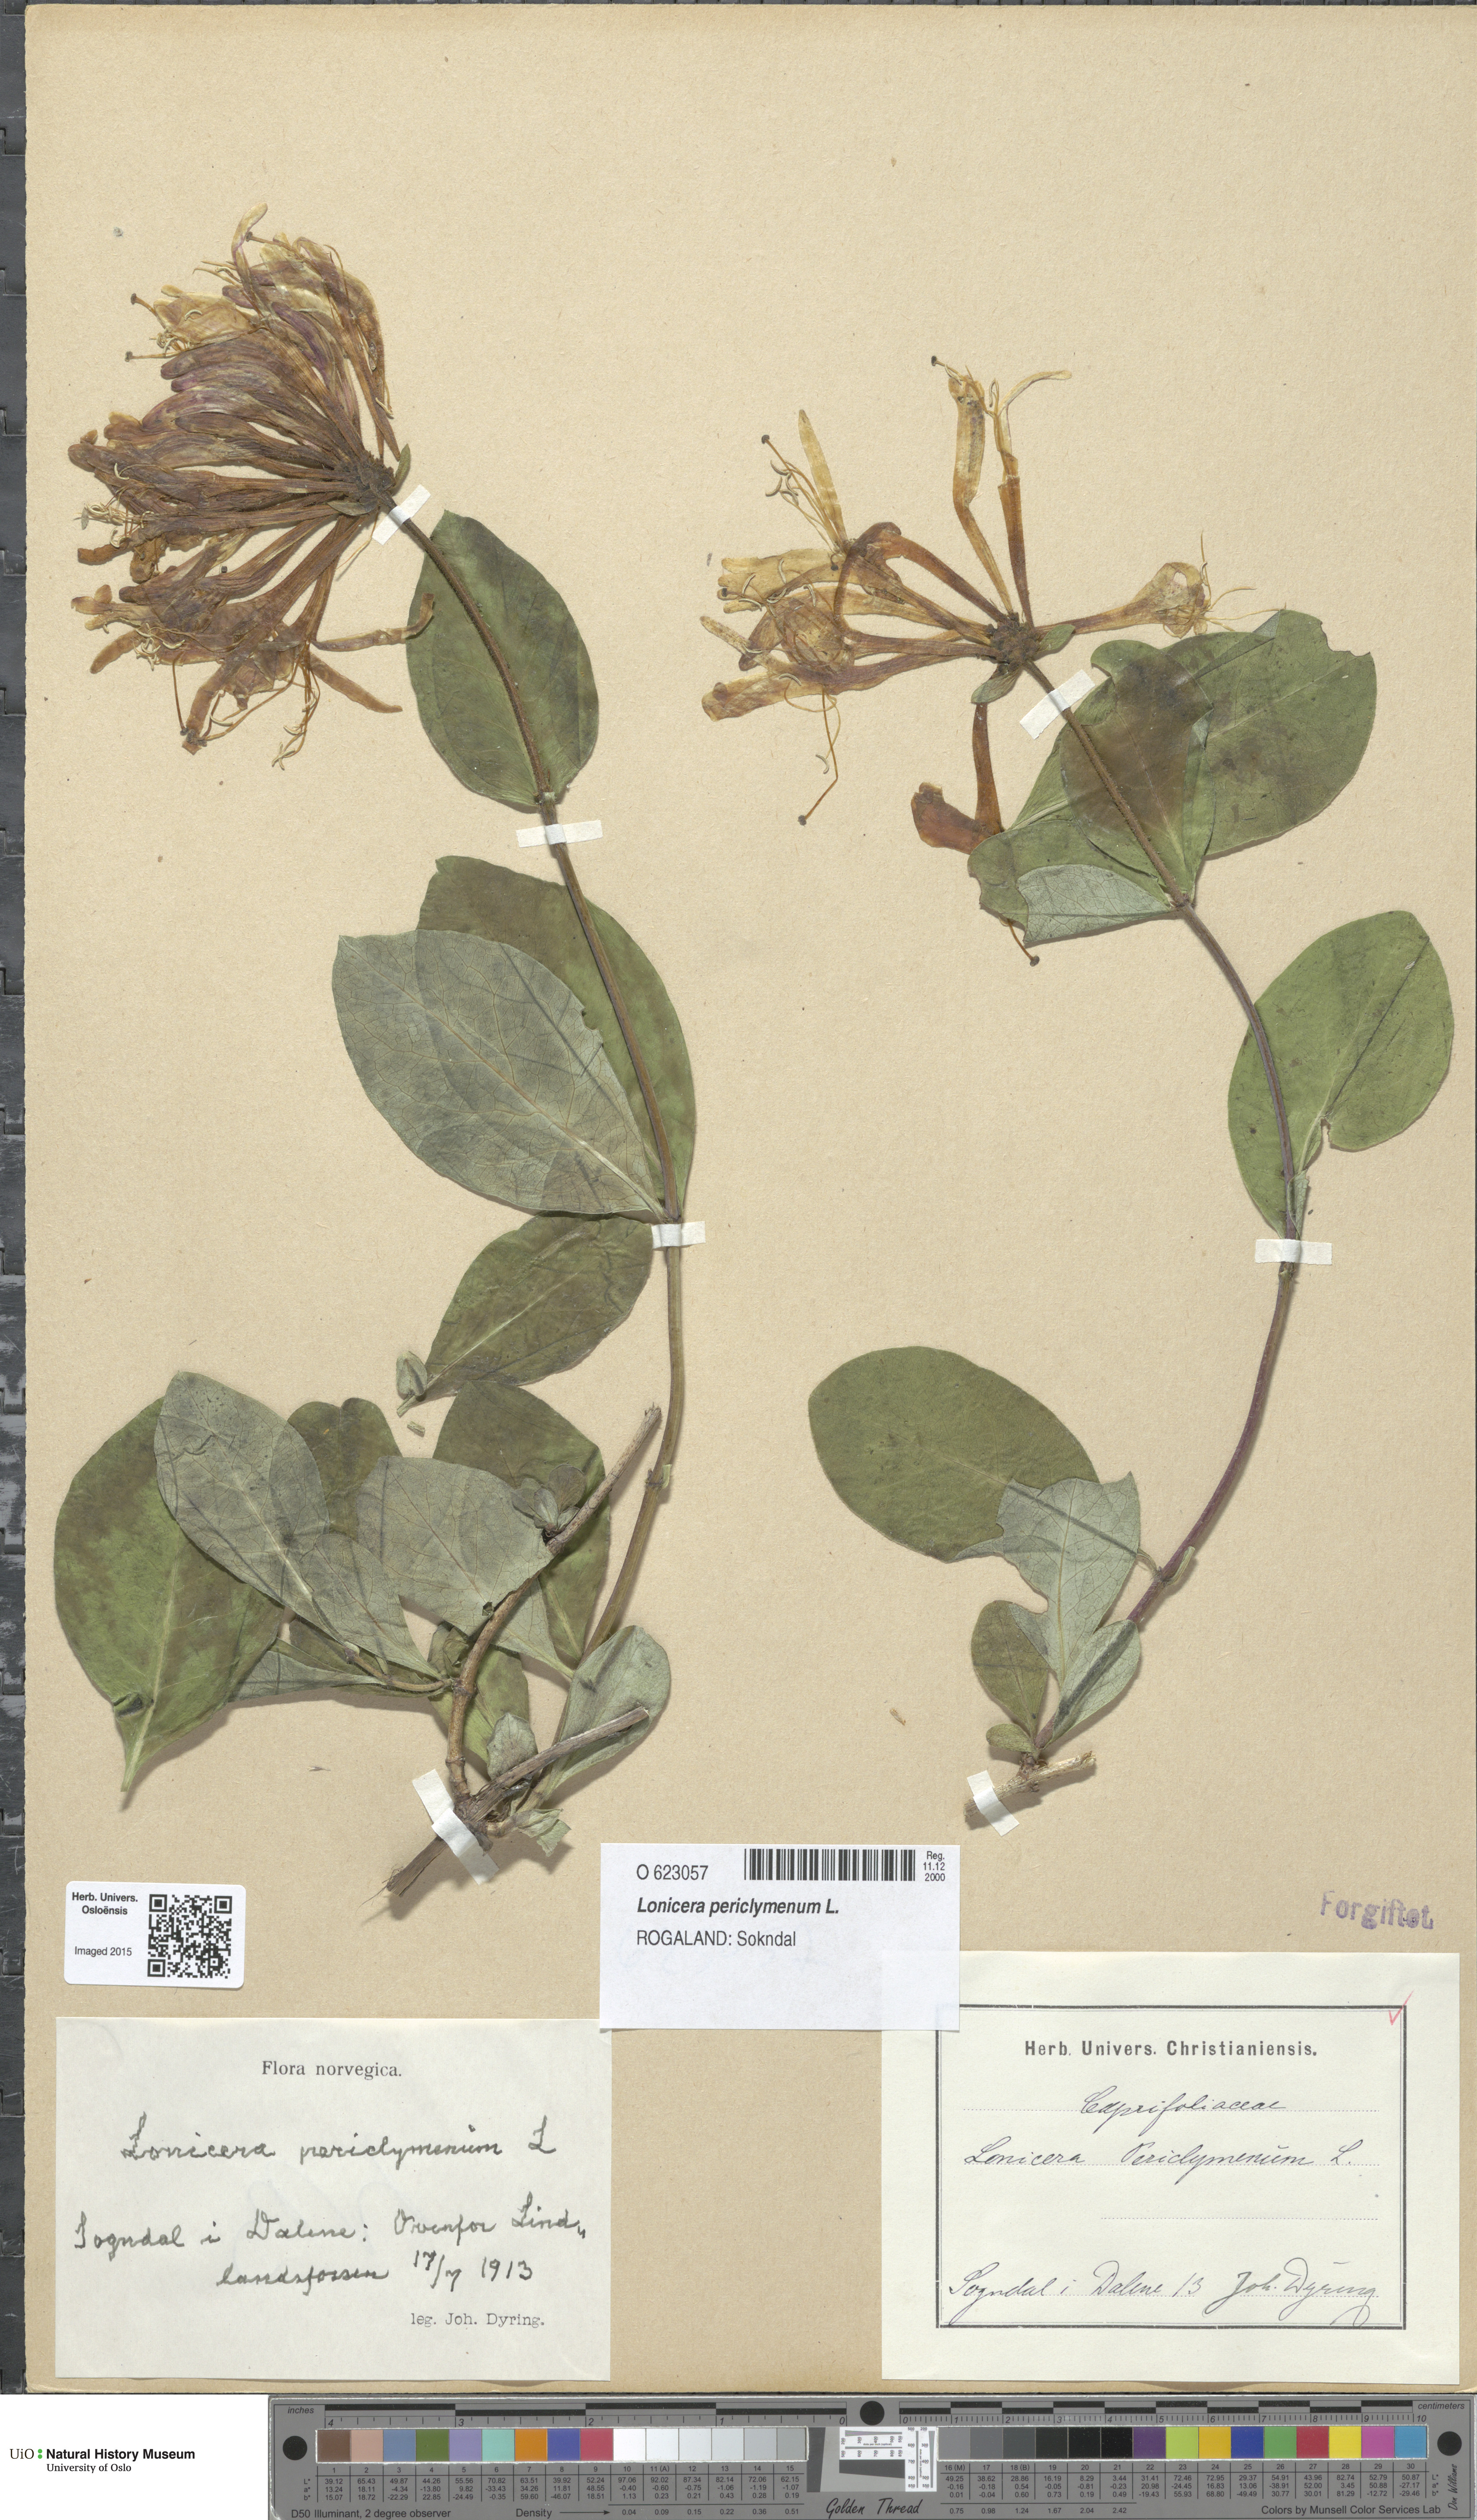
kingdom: Plantae
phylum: Tracheophyta
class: Magnoliopsida
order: Dipsacales
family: Caprifoliaceae
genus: Lonicera
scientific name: Lonicera periclymenum
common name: European honeysuckle
